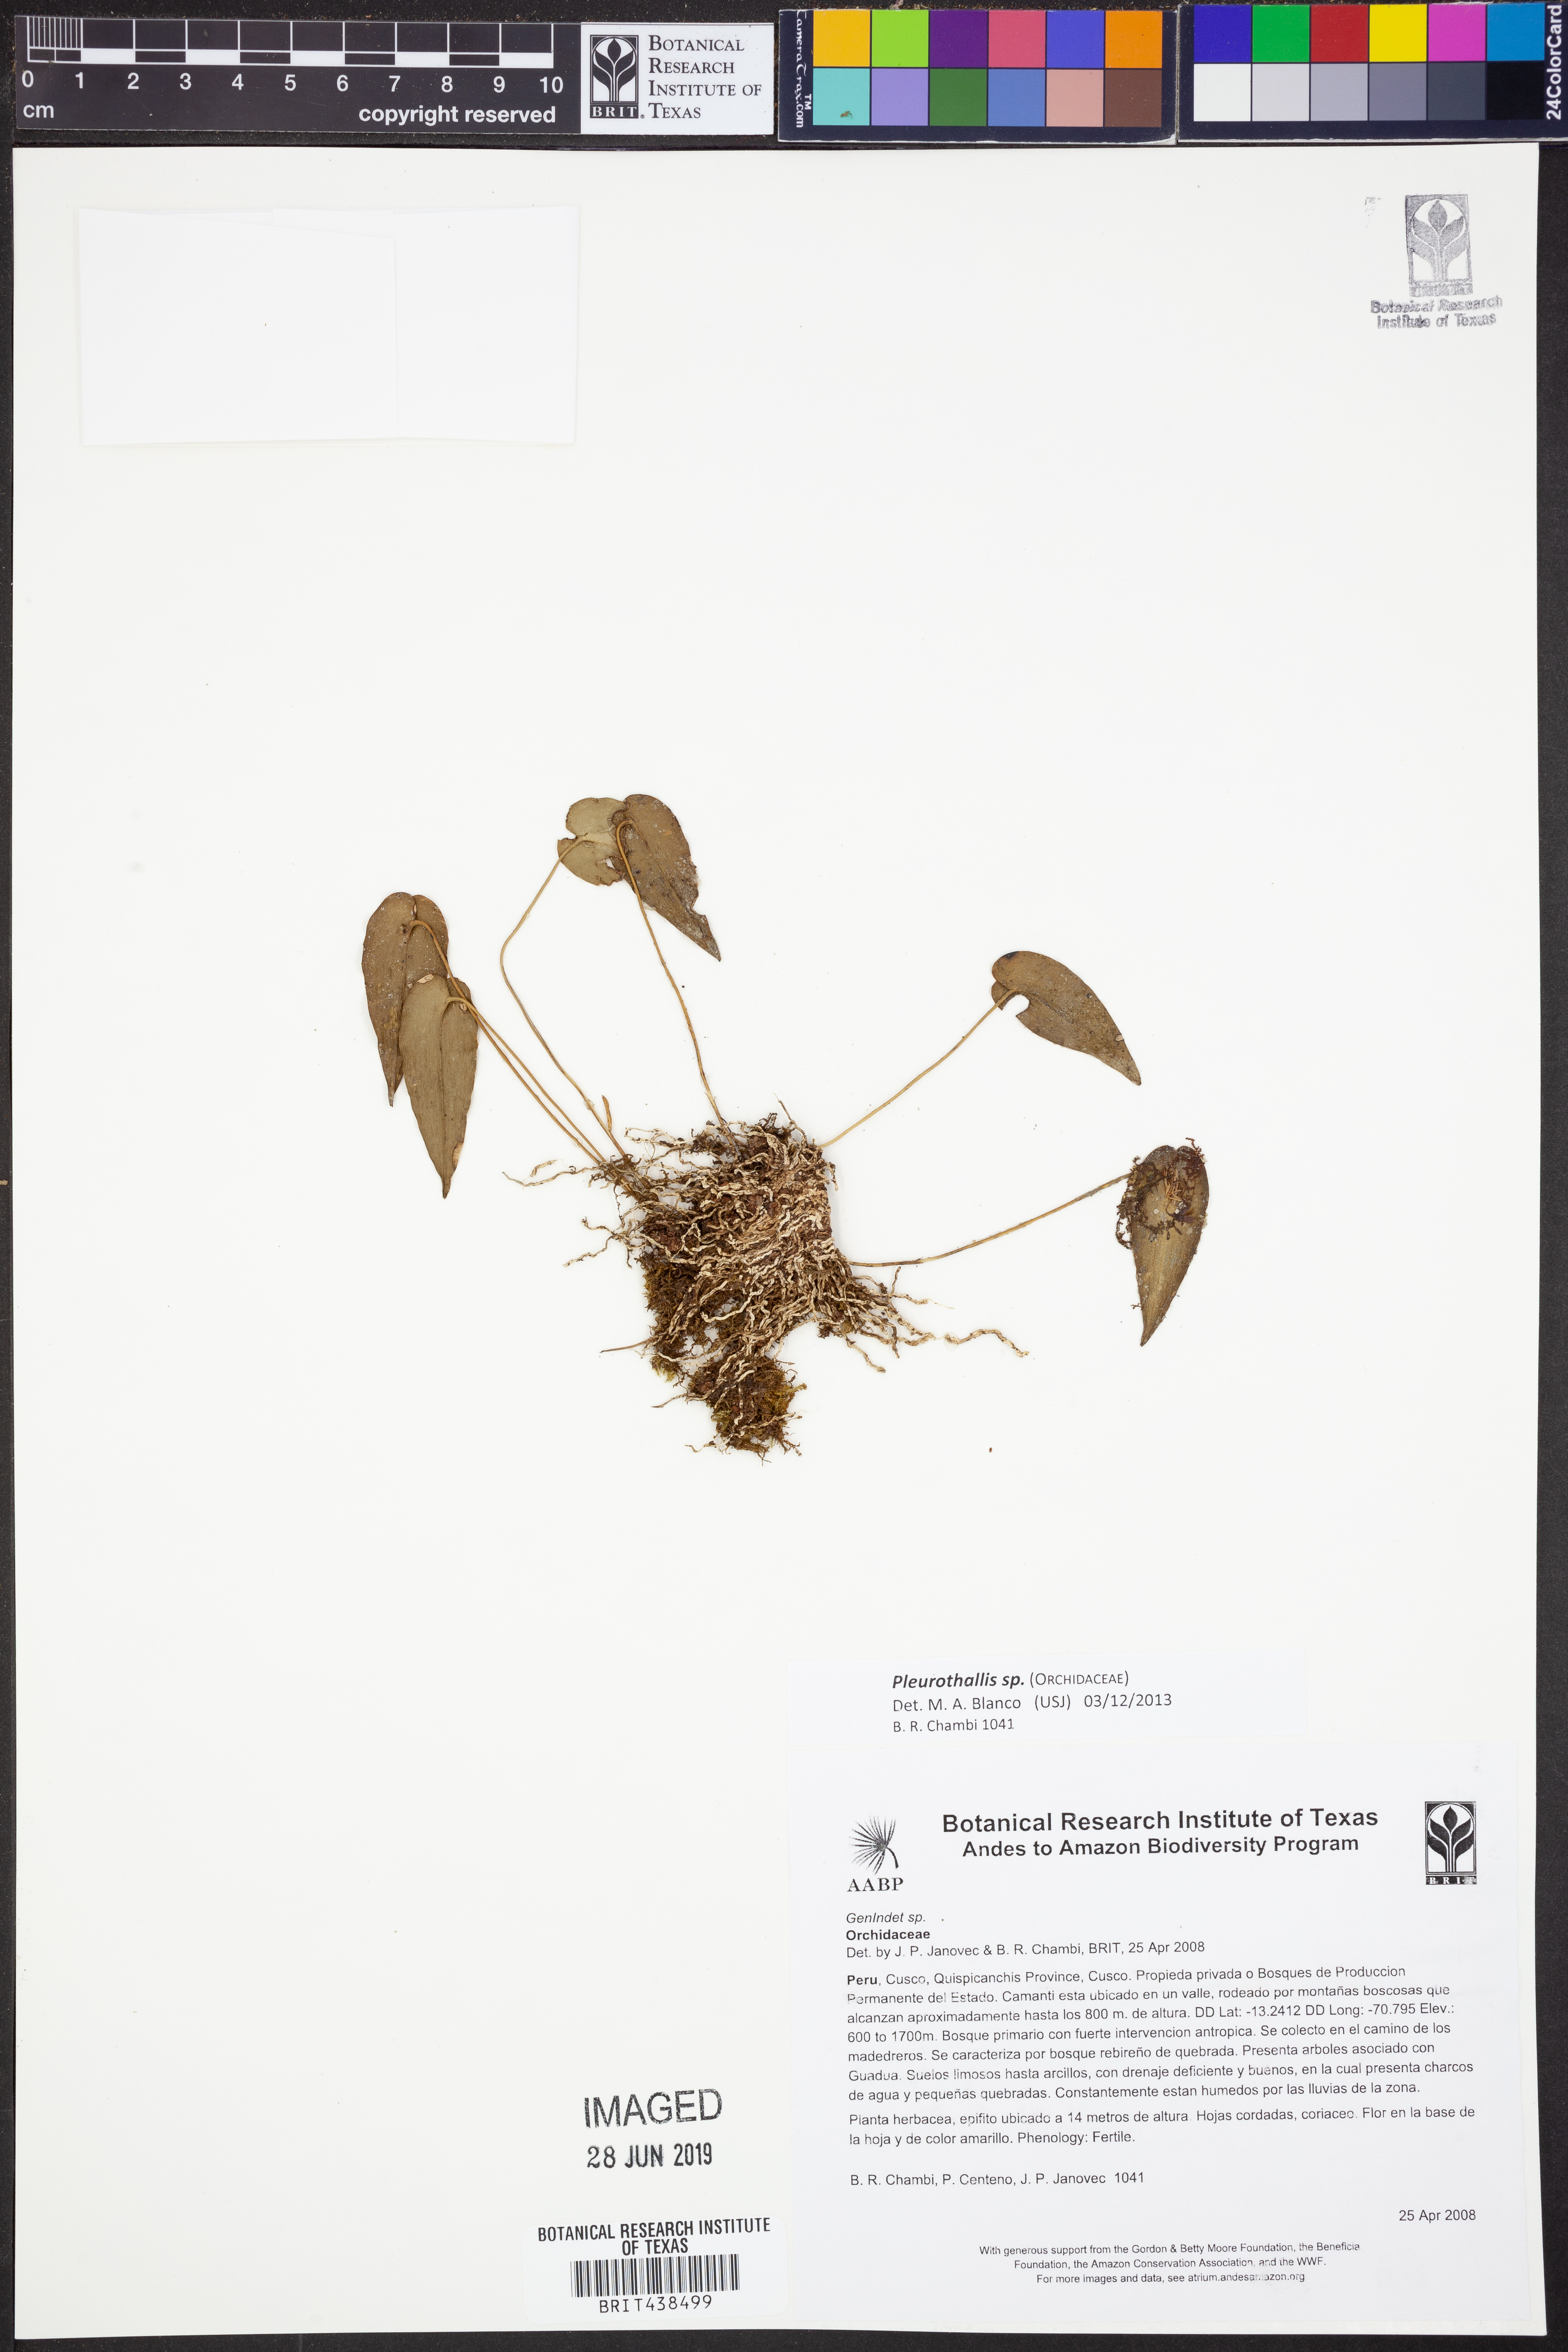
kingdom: Plantae
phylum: Tracheophyta
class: Liliopsida
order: Asparagales
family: Orchidaceae
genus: Pleurothallis
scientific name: Pleurothallis
